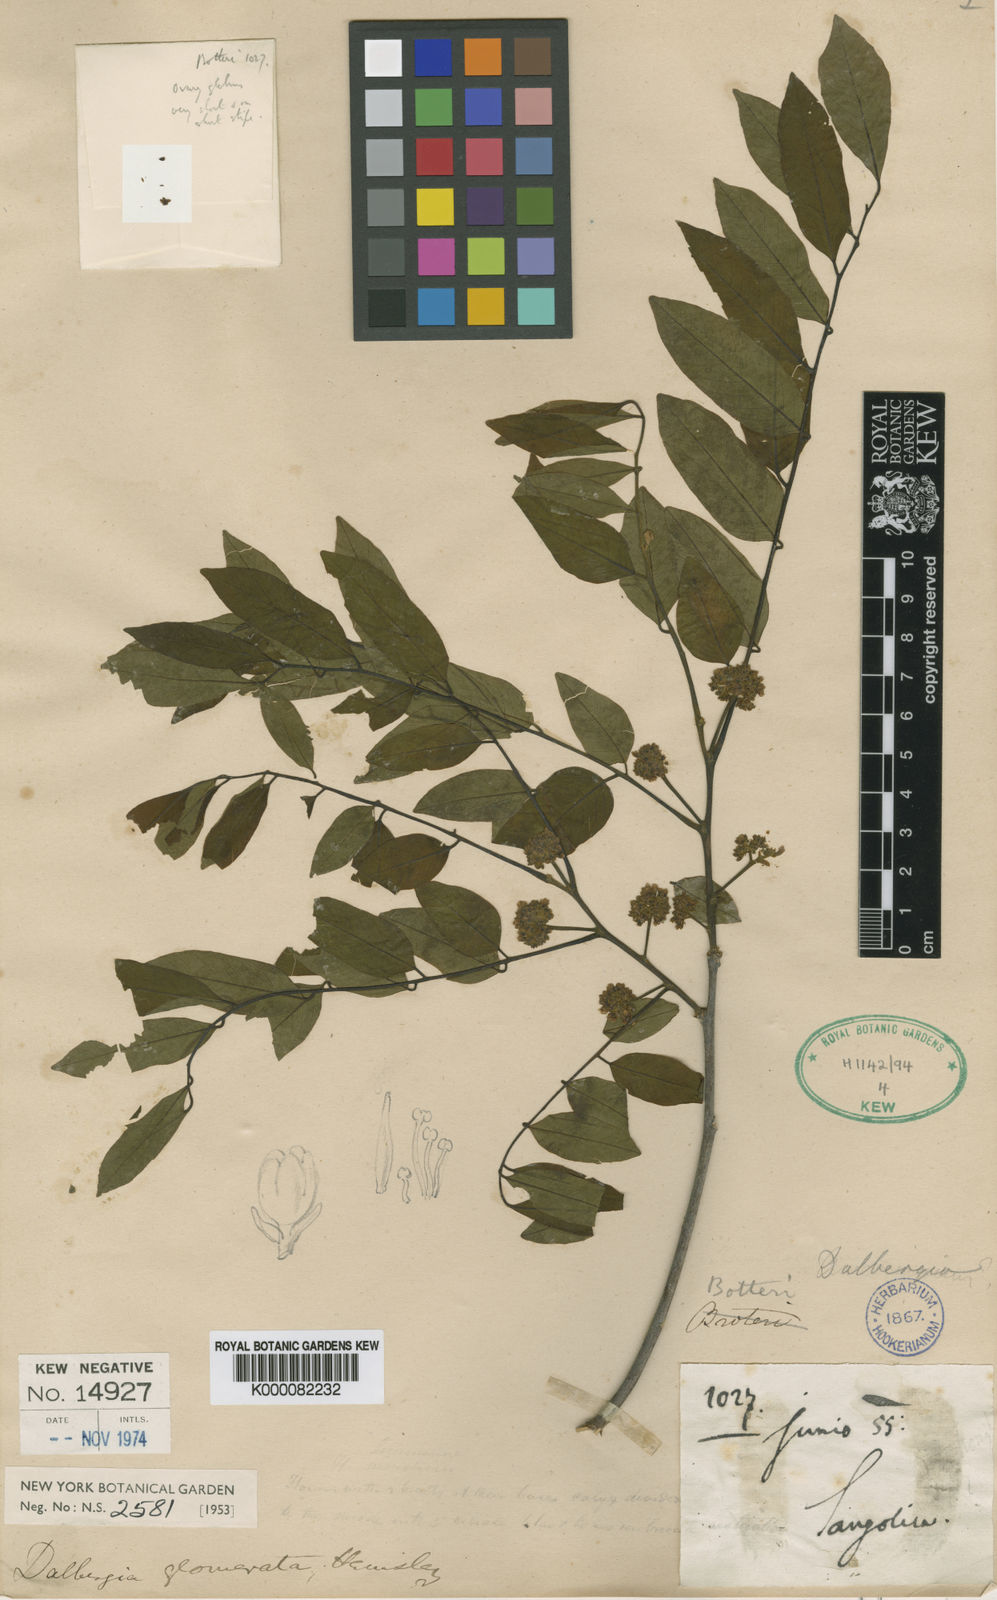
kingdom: Plantae
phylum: Tracheophyta
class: Magnoliopsida
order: Fabales
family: Fabaceae
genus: Dalbergia
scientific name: Dalbergia glomerata
